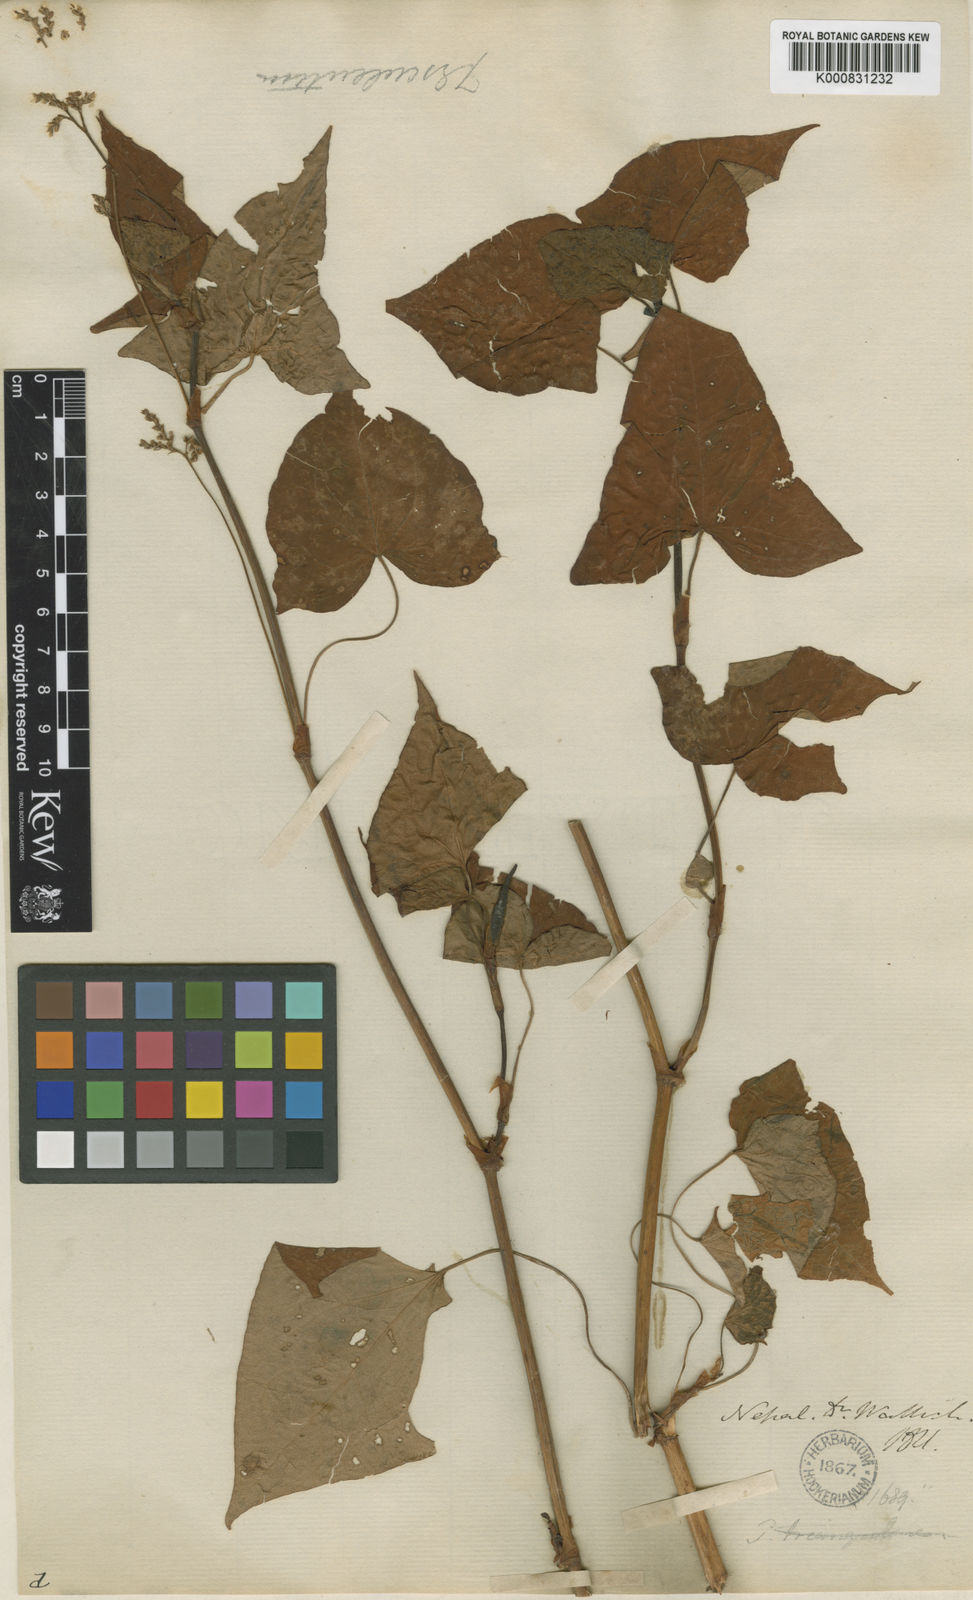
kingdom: Plantae
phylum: Tracheophyta
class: Magnoliopsida
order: Caryophyllales
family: Polygonaceae
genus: Fagopyrum
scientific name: Fagopyrum cymosum
